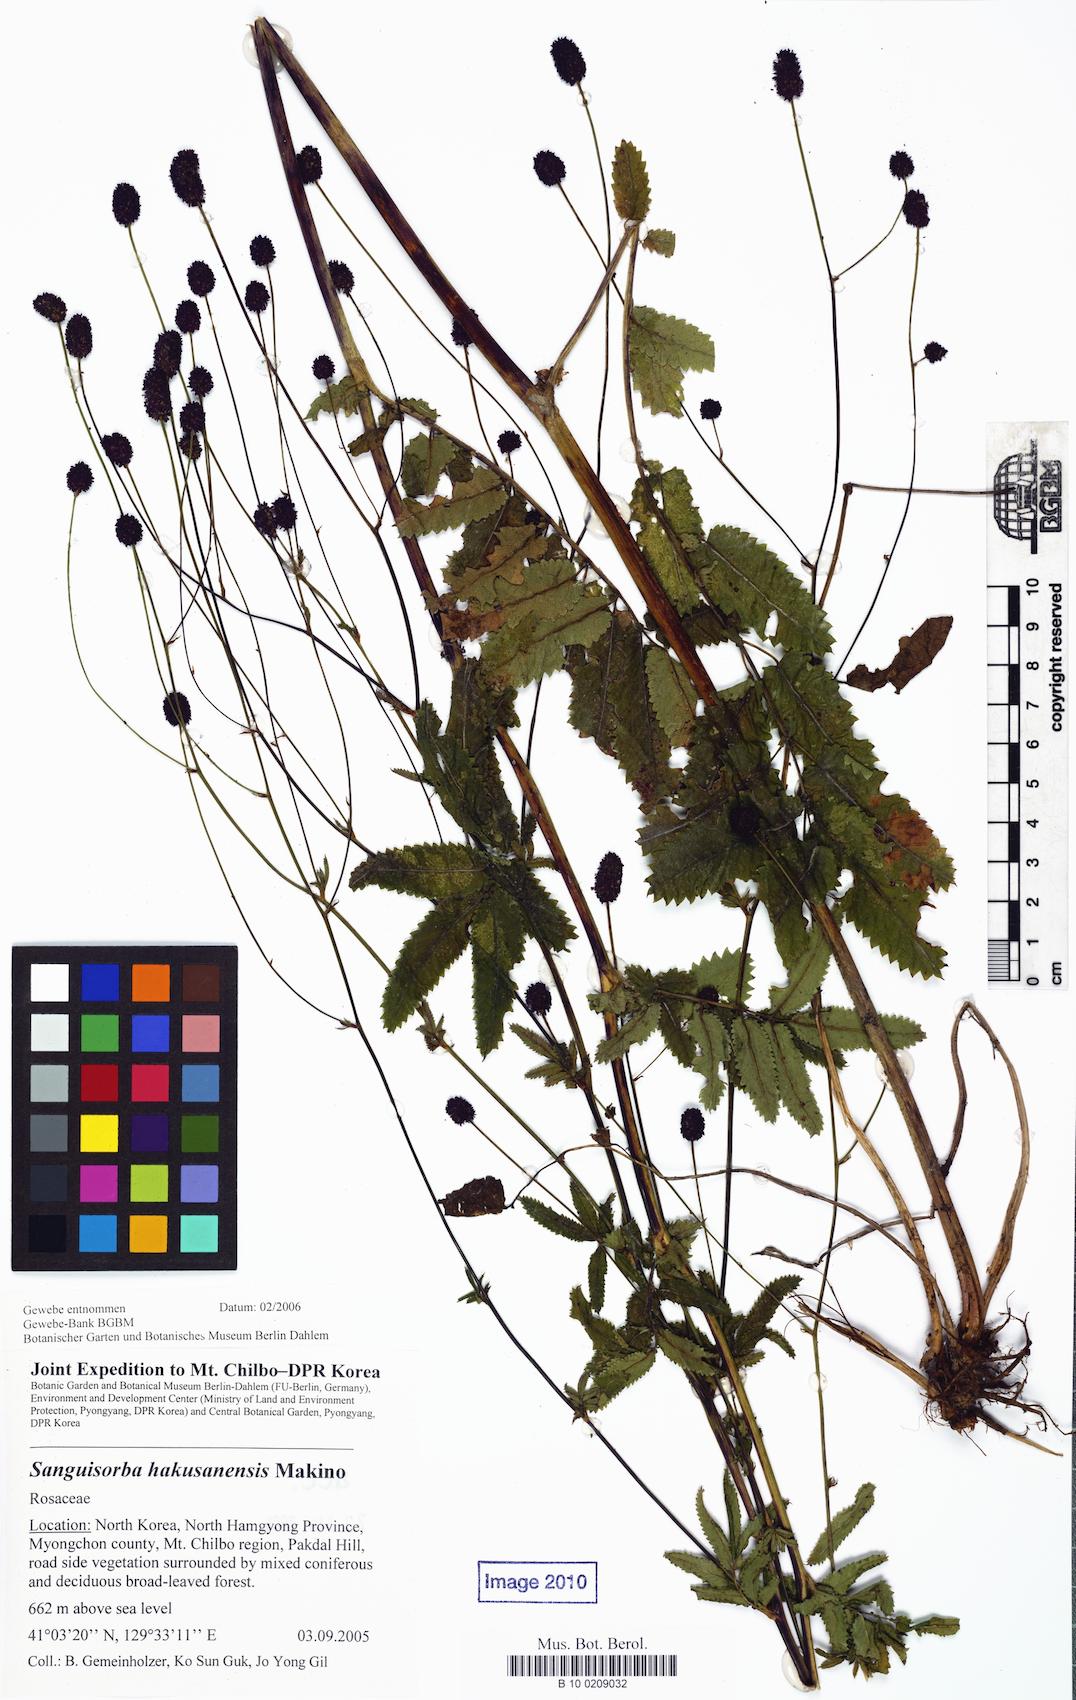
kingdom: Plantae
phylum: Tracheophyta
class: Magnoliopsida
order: Rosales
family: Rosaceae
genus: Sanguisorba
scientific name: Sanguisorba hakusanensis
